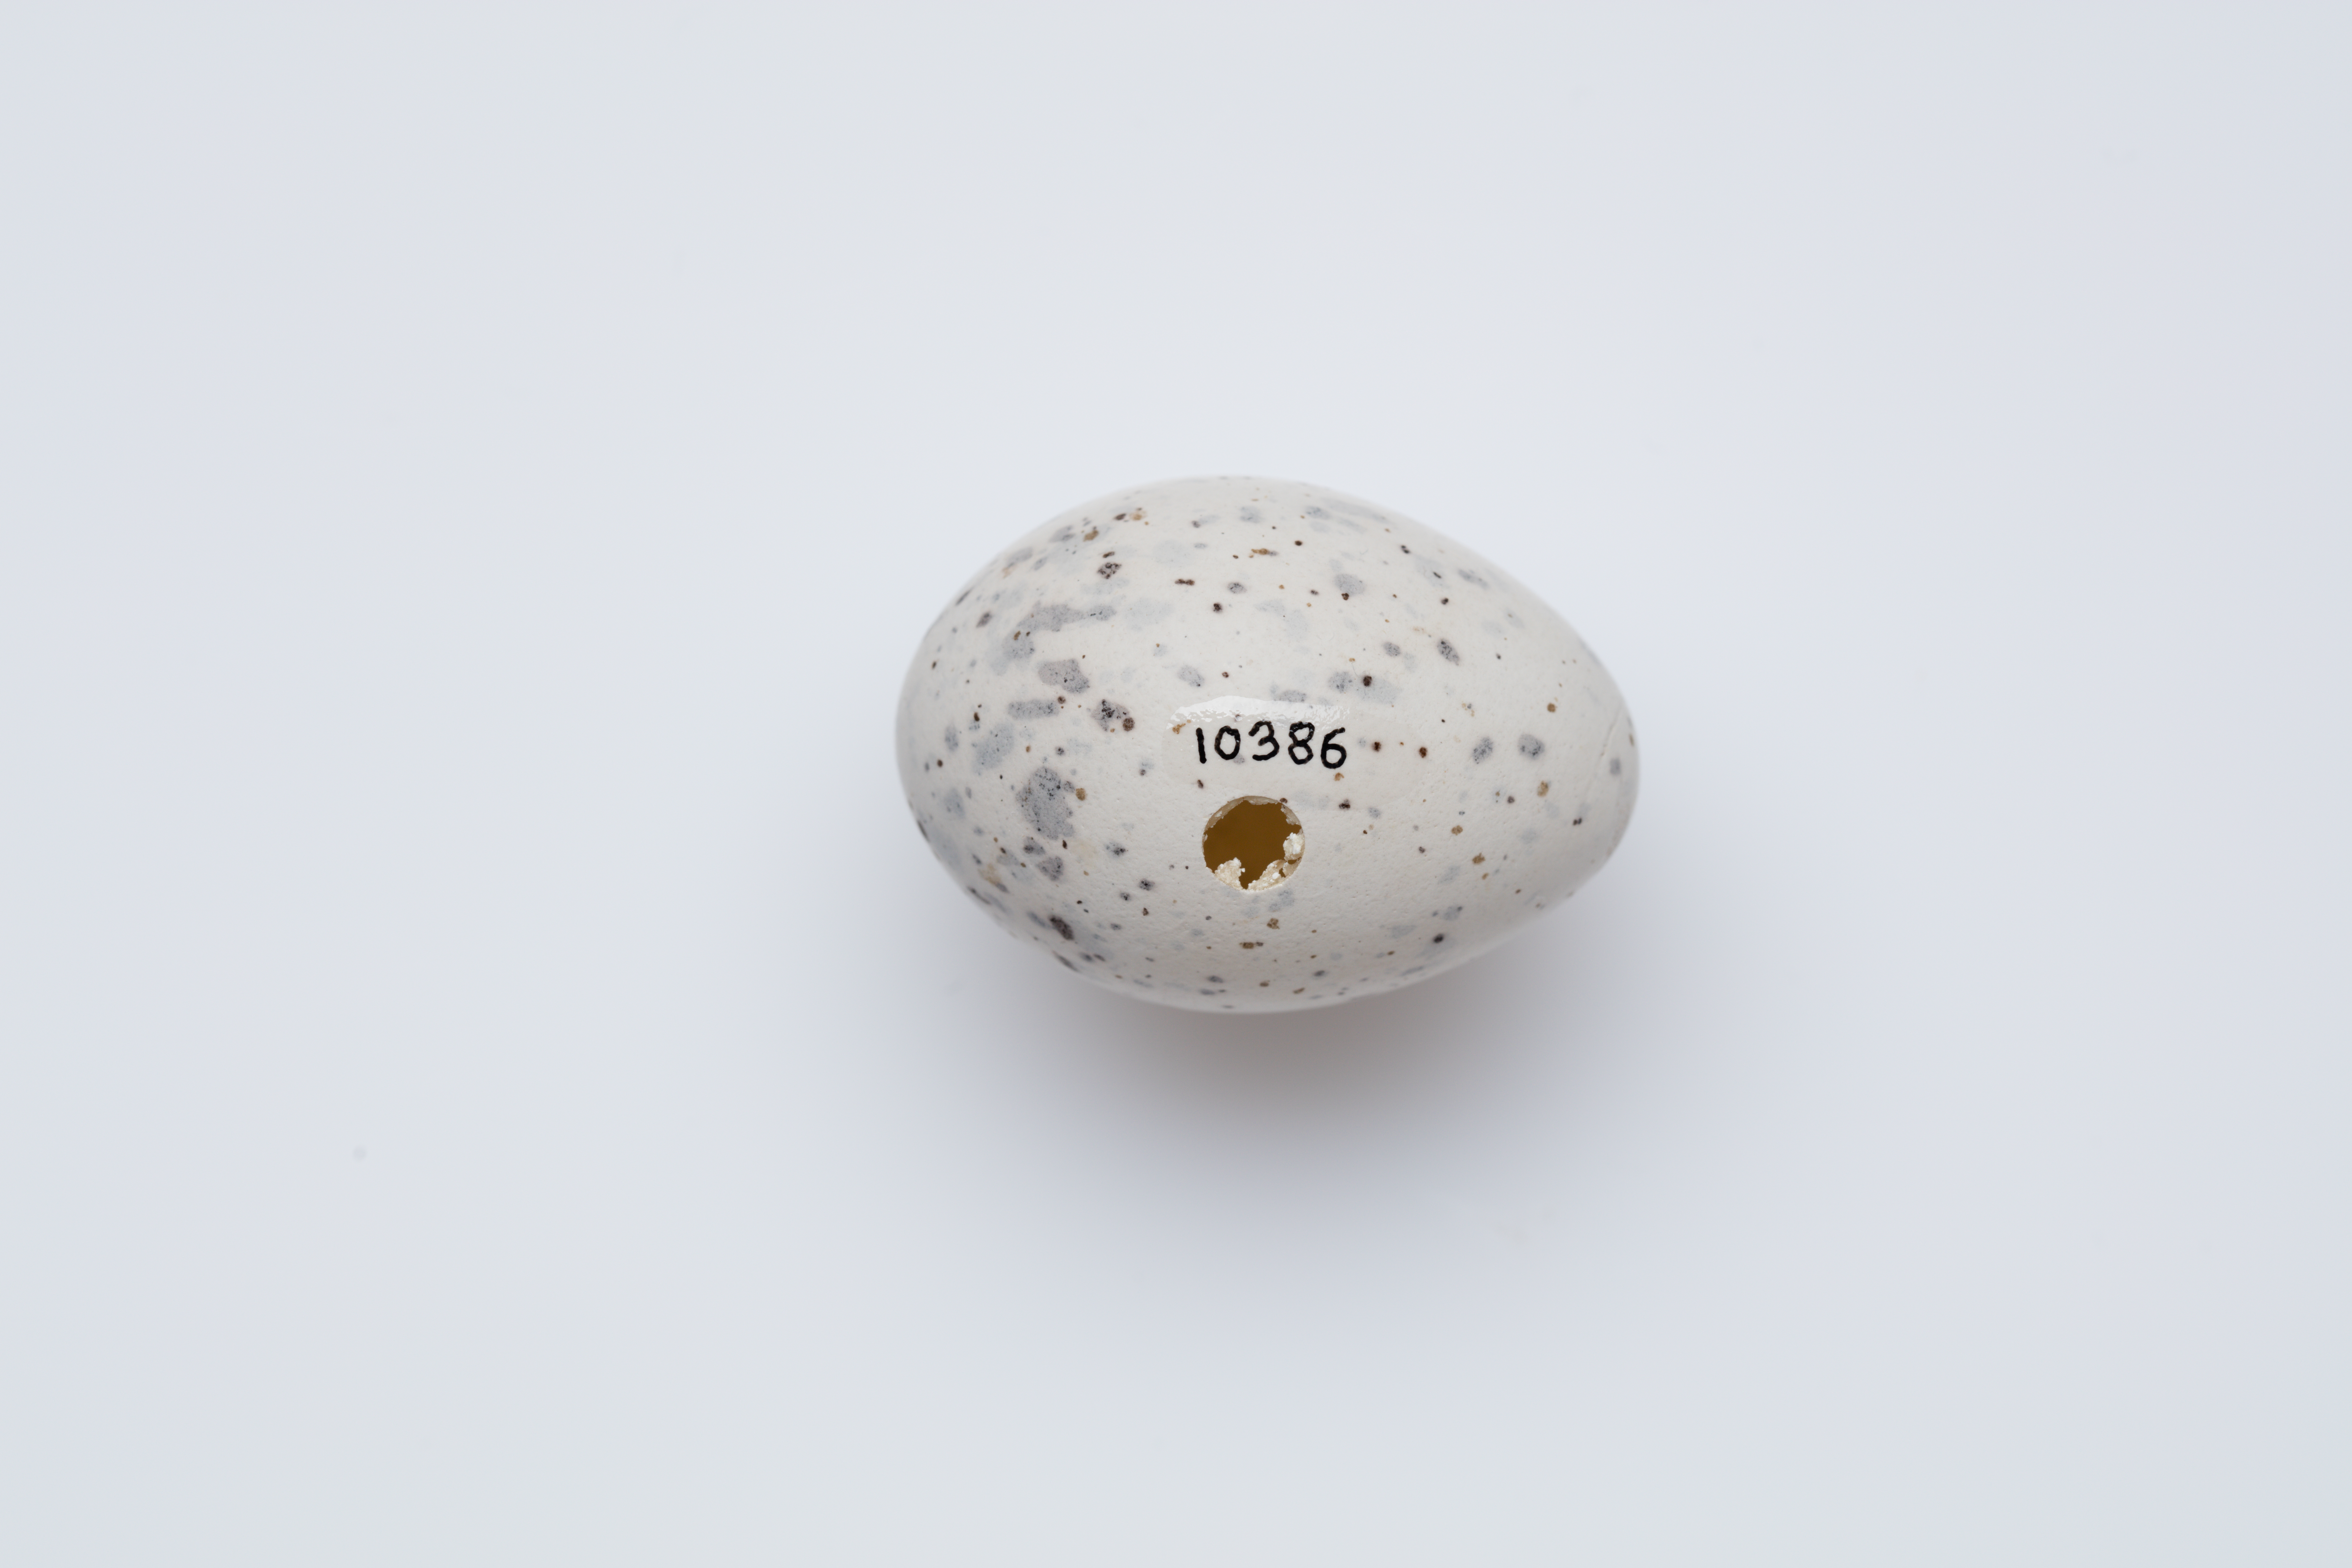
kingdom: Animalia
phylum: Chordata
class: Aves
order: Passeriformes
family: Callaeatidae
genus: Callaeas
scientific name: Callaeas cinereus
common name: South island kokako
